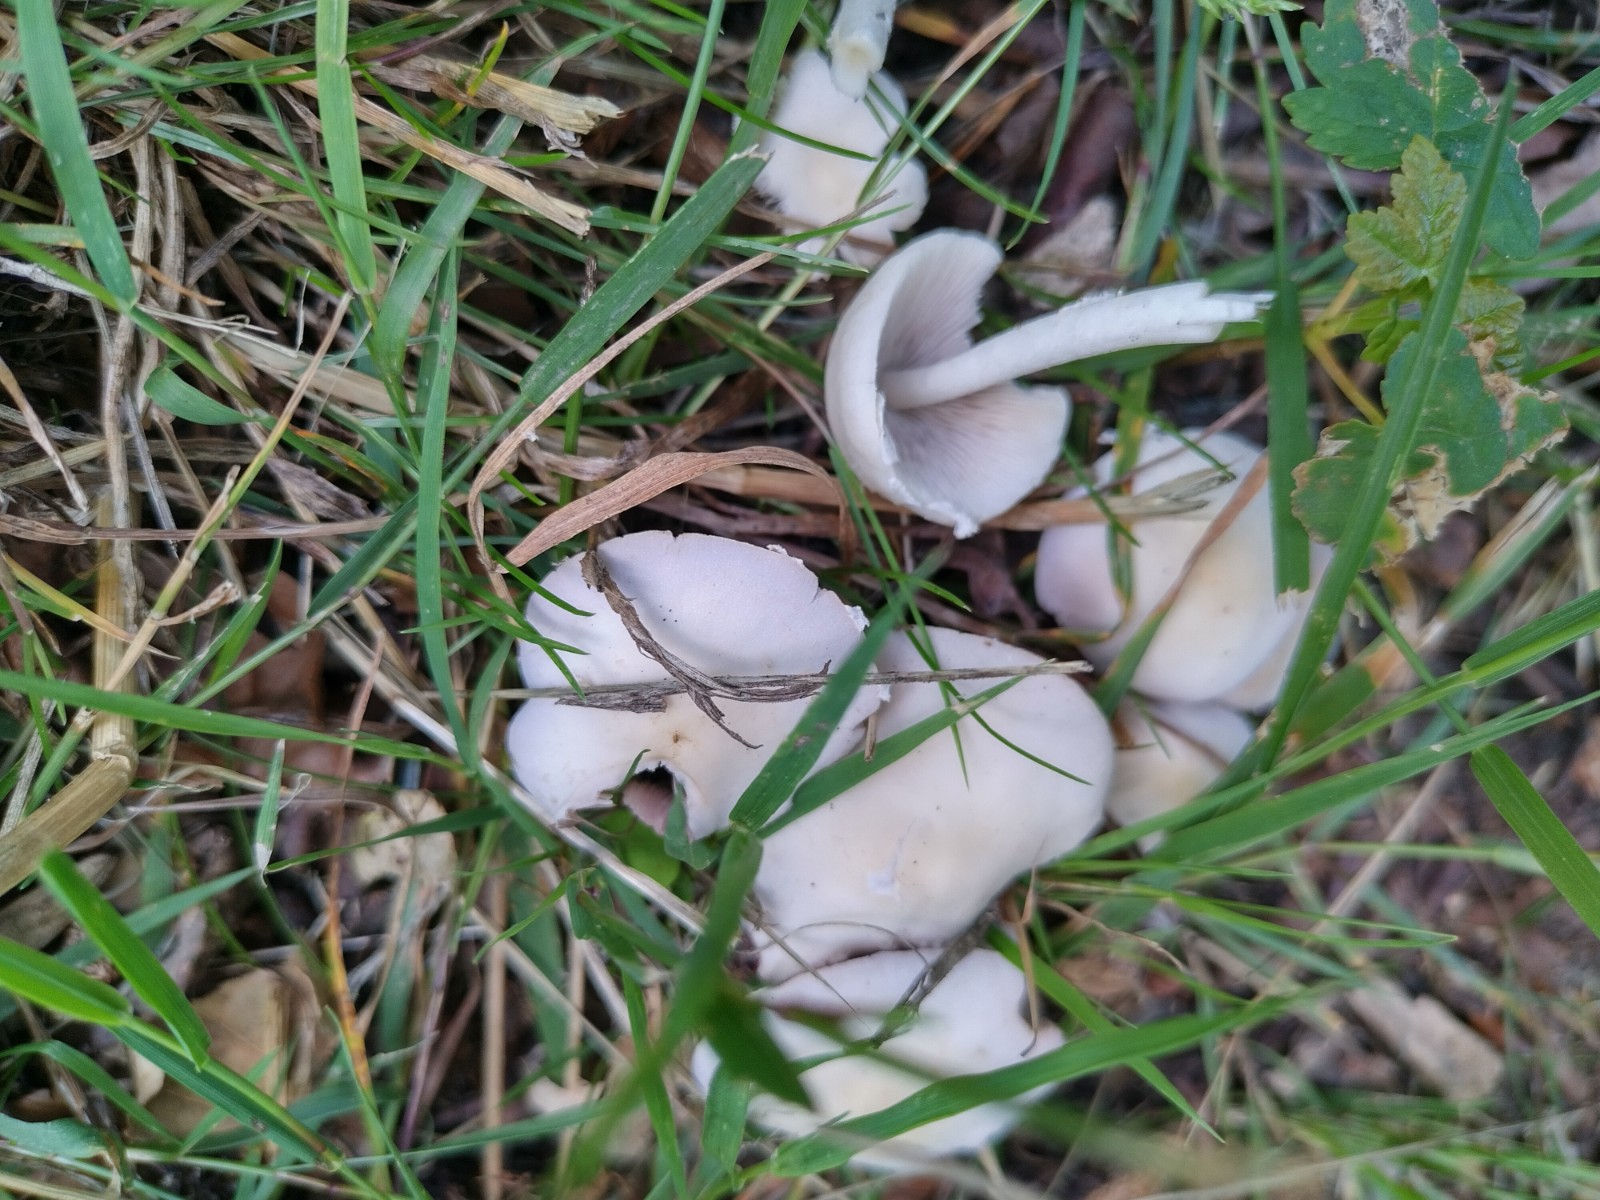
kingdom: Fungi
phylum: Basidiomycota
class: Agaricomycetes
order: Agaricales
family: Psathyrellaceae
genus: Candolleomyces
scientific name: Candolleomyces candolleanus
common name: Candolles mørkhat
